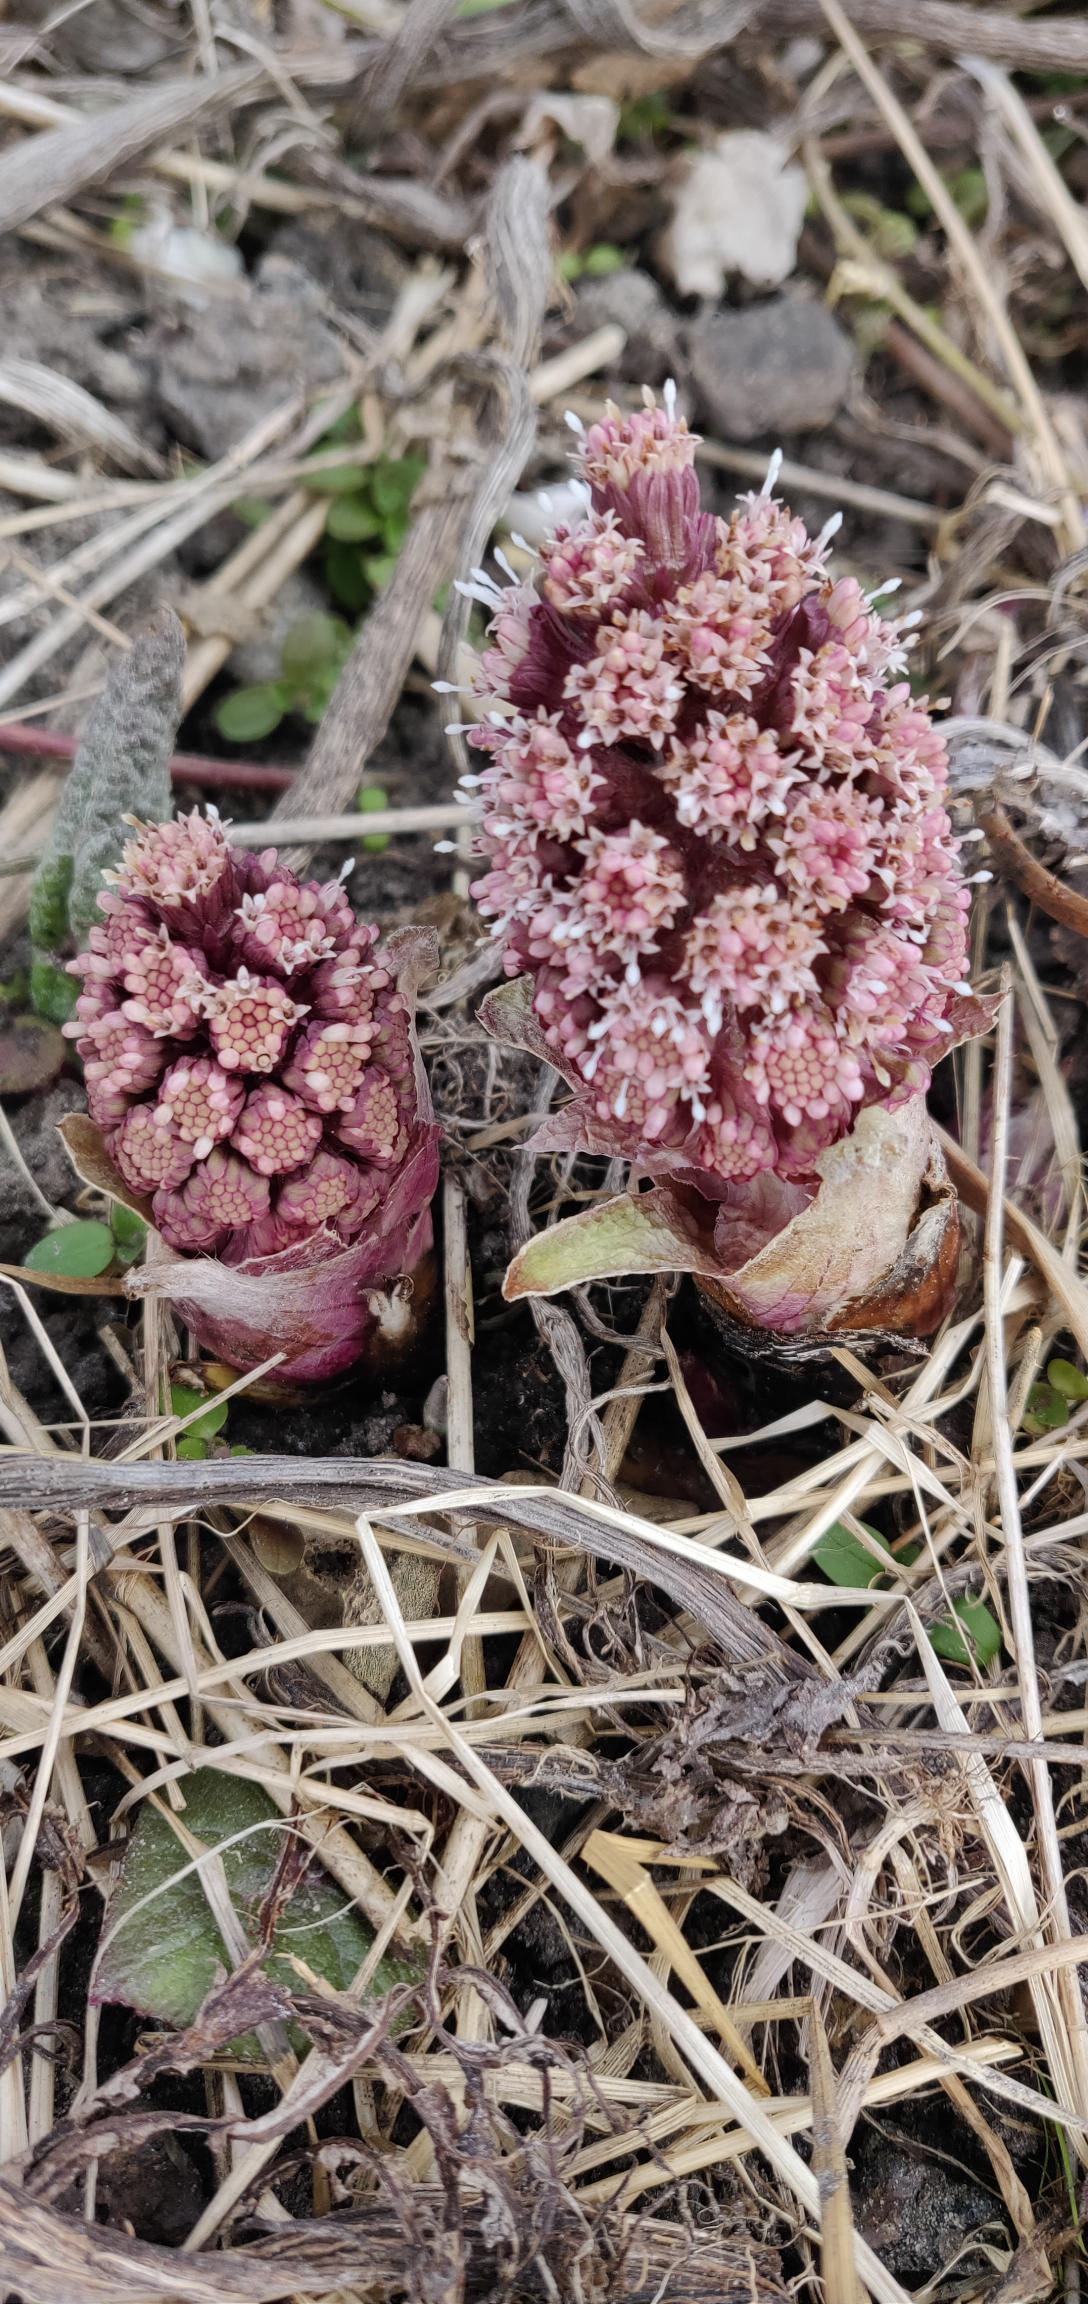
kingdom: Plantae
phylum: Tracheophyta
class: Magnoliopsida
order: Asterales
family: Asteraceae
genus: Petasites
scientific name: Petasites hybridus
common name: Rød hestehov
